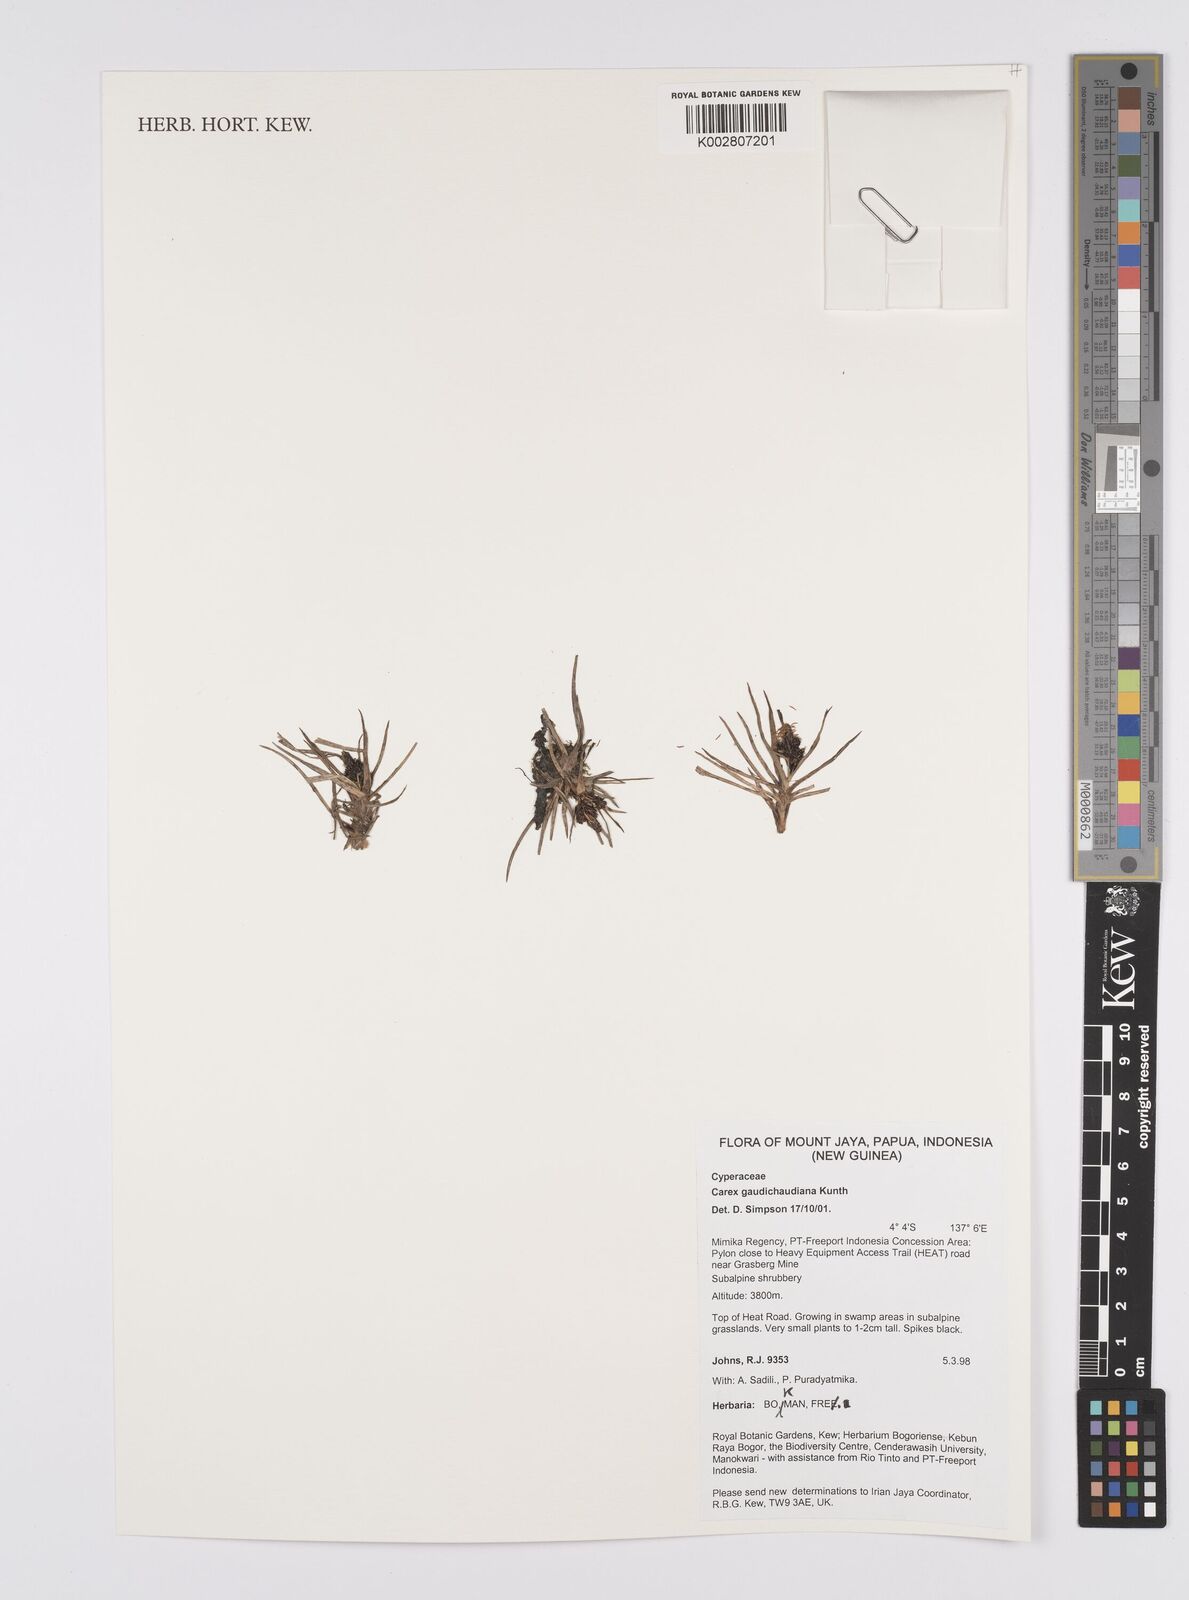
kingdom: Plantae
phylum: Tracheophyta
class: Liliopsida
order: Poales
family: Cyperaceae
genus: Carex
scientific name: Carex gaudichaudiana
